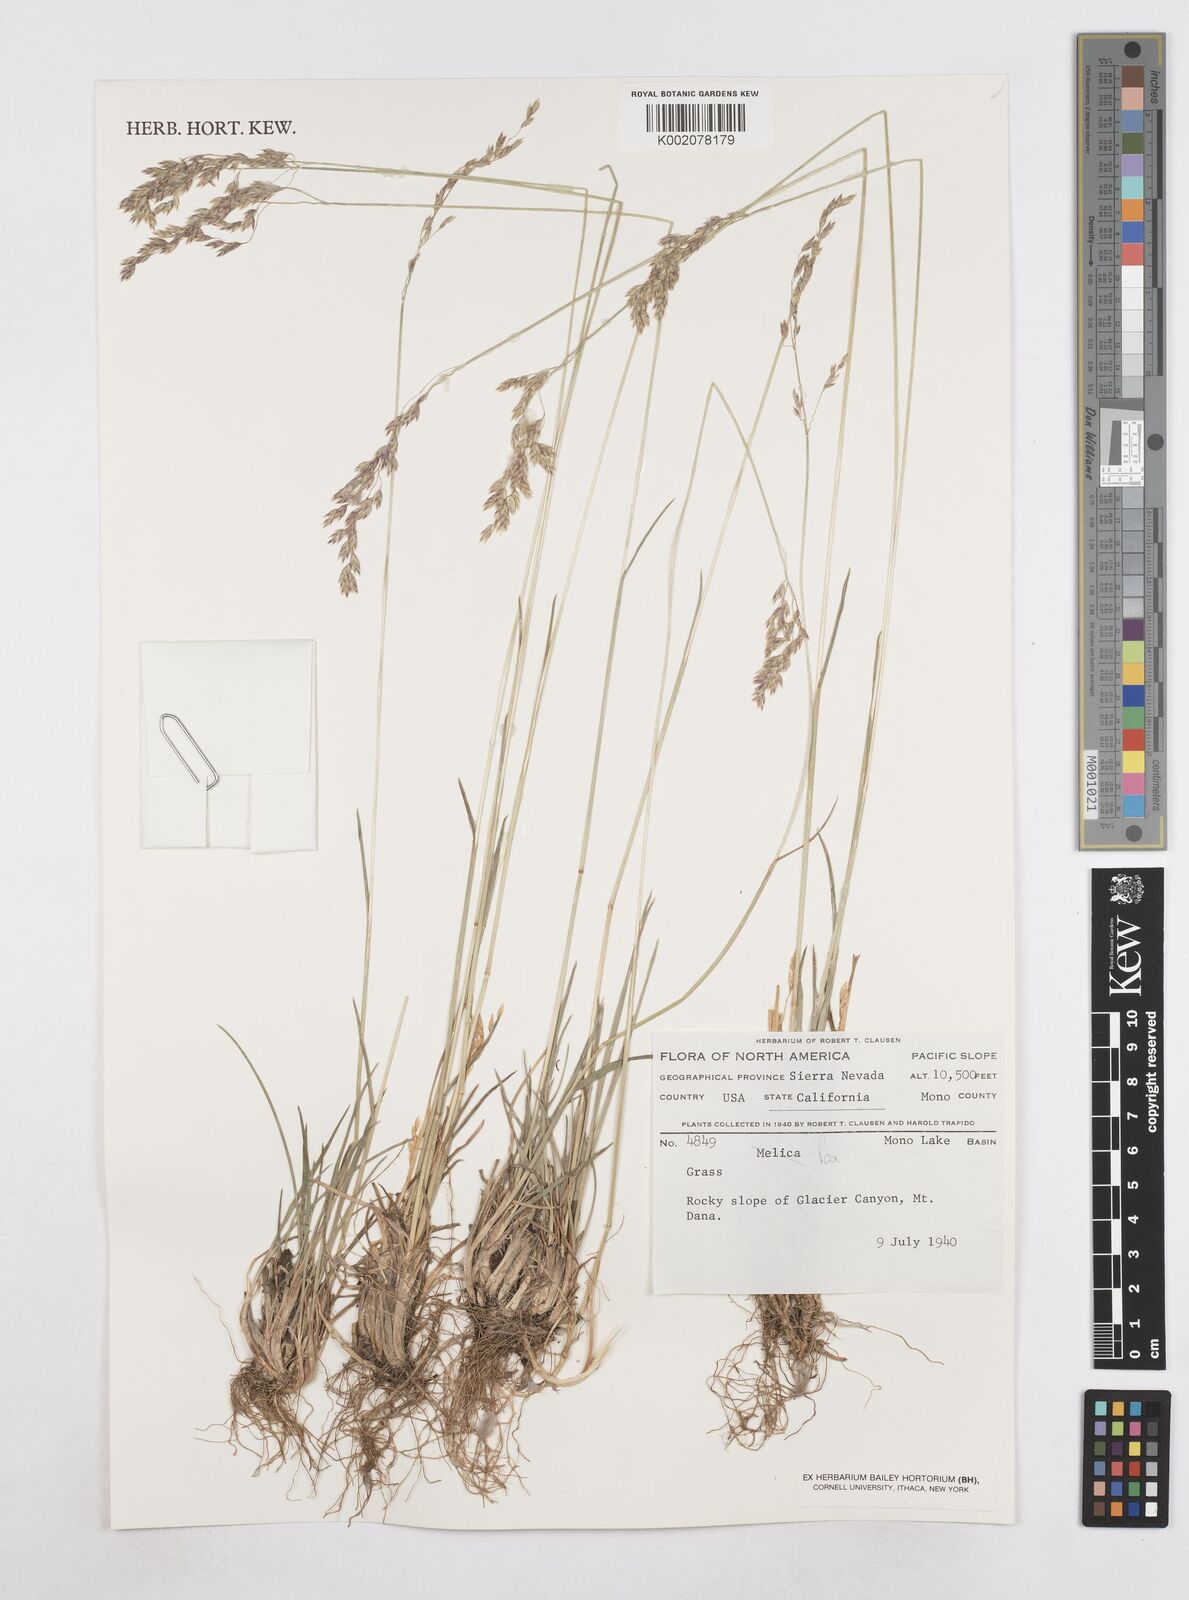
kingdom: Plantae
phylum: Tracheophyta
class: Liliopsida
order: Poales
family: Poaceae
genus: Poa
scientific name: Poa
